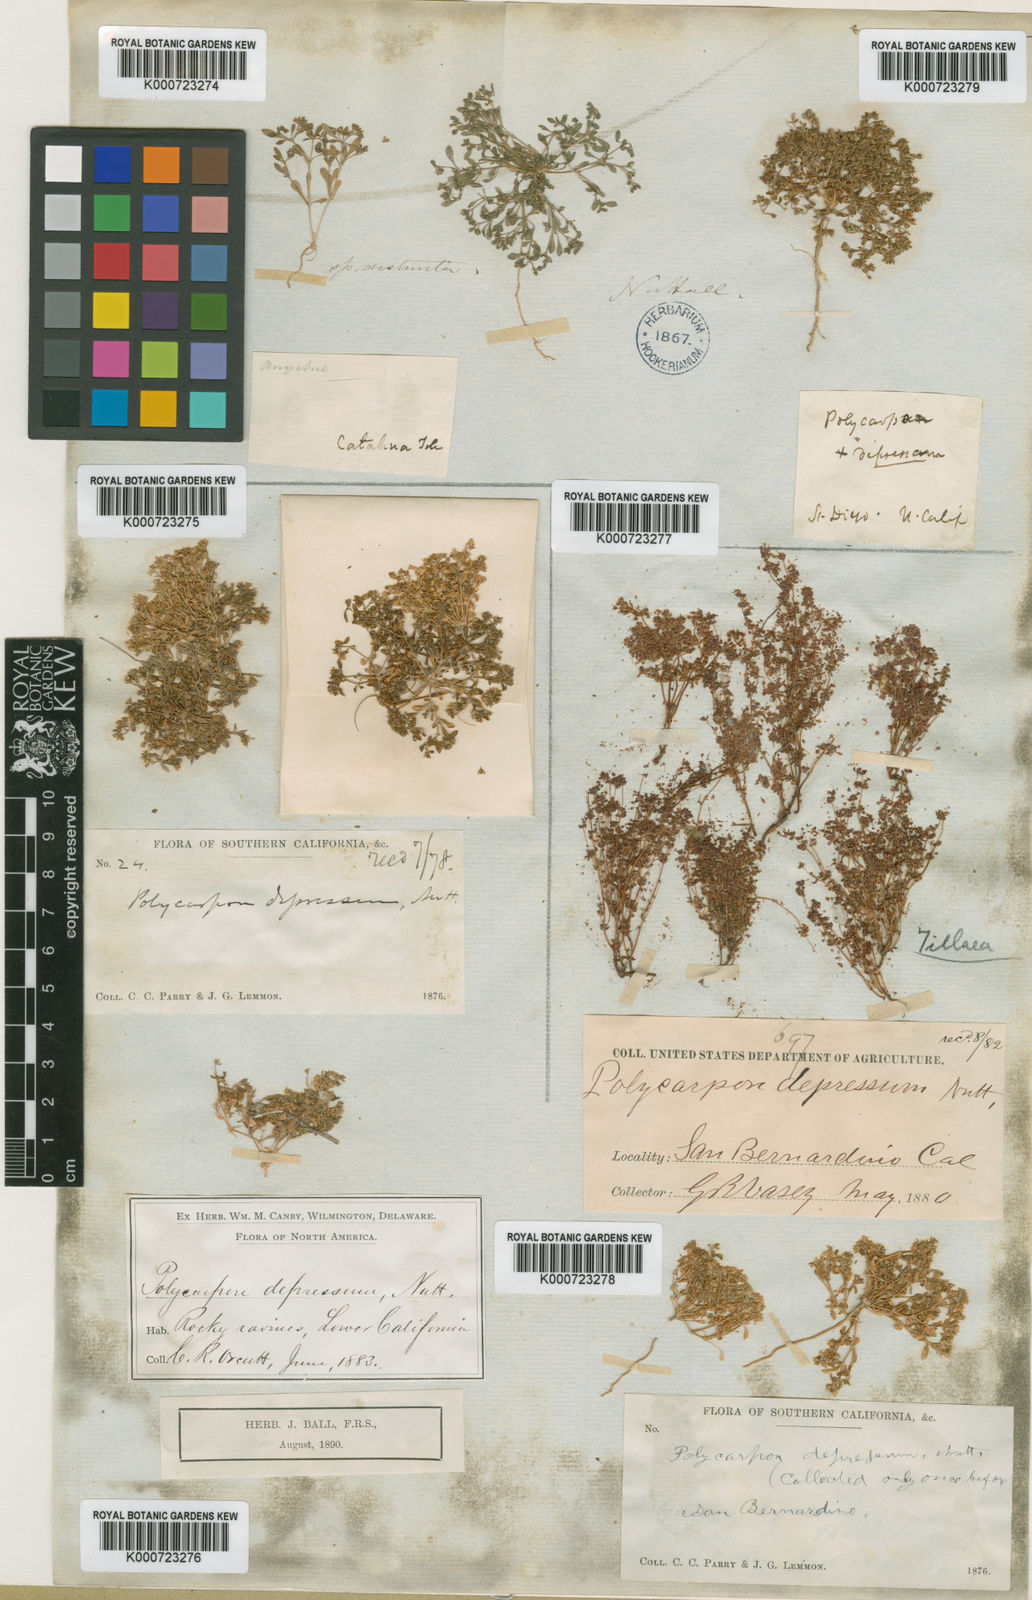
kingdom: Plantae
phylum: Tracheophyta
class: Magnoliopsida
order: Caryophyllales
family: Caryophyllaceae
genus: Polycarpon
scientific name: Polycarpon
